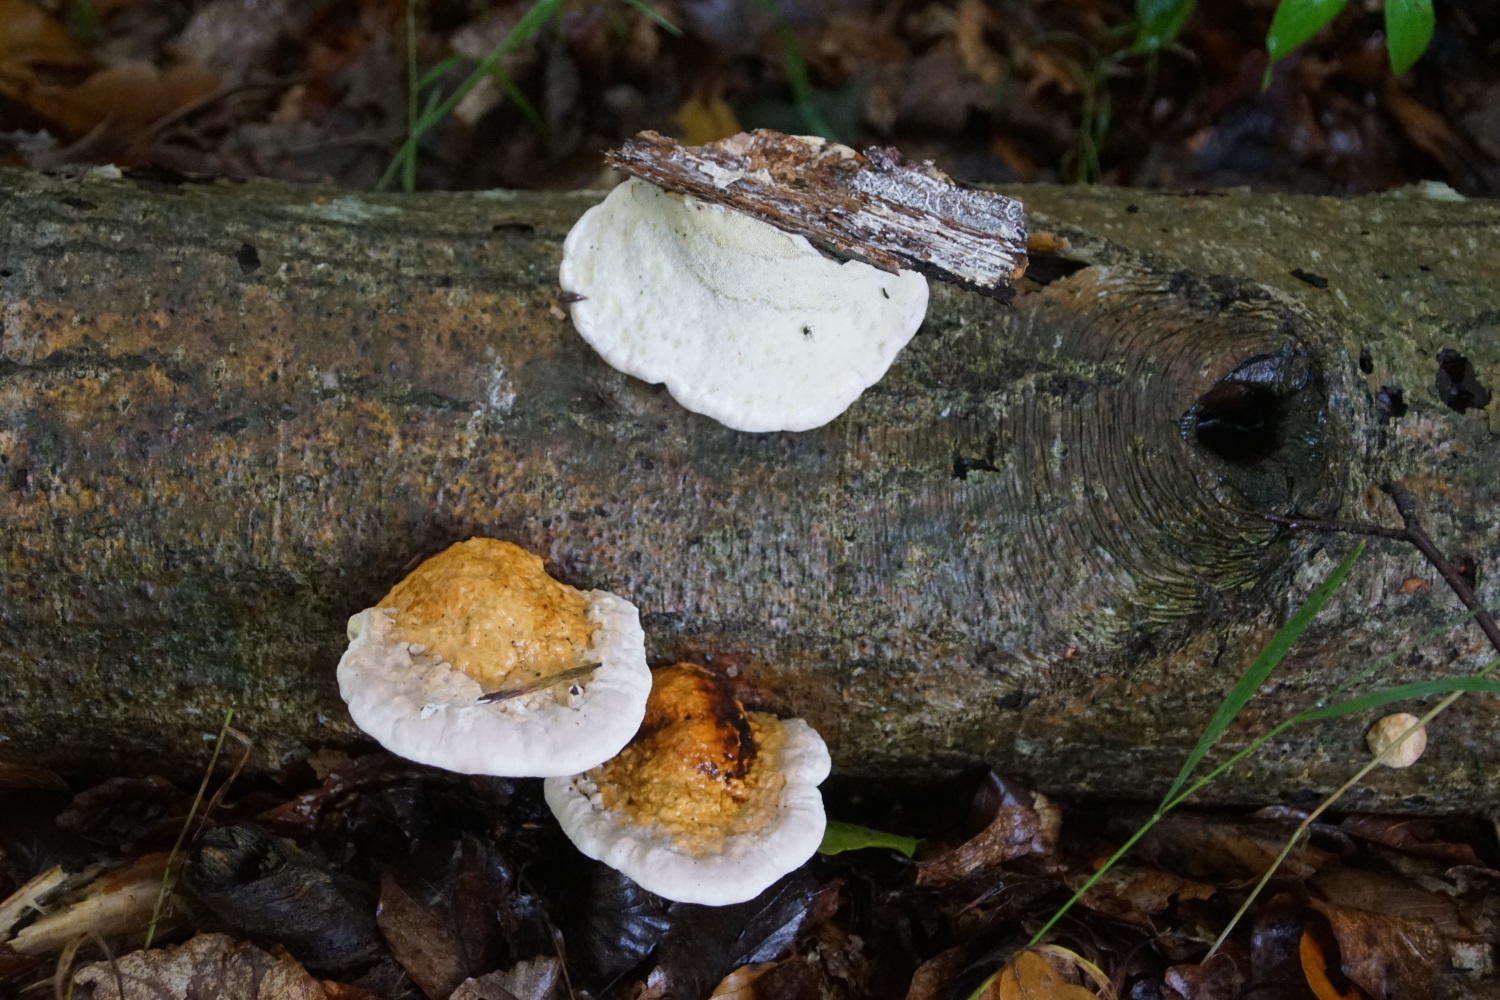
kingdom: Fungi
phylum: Basidiomycota
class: Agaricomycetes
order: Polyporales
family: Fomitopsidaceae
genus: Fomitopsis
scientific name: Fomitopsis pinicola
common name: randbæltet hovporesvamp
